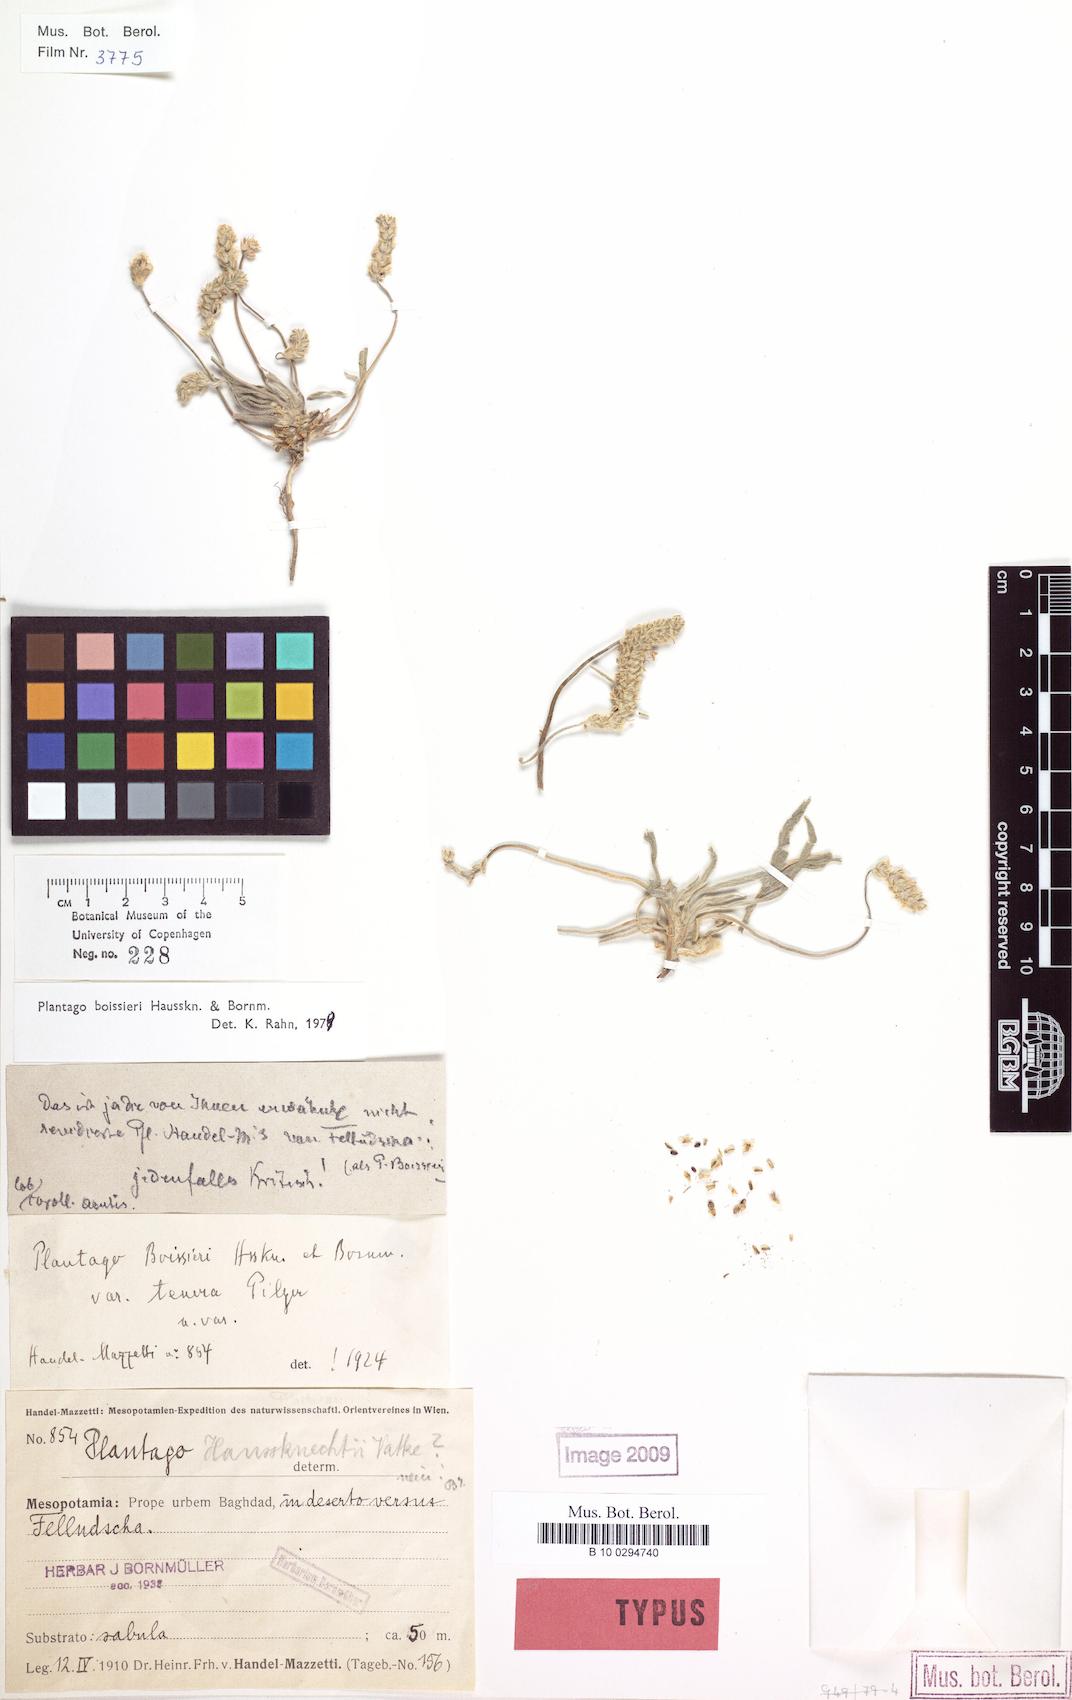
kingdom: Plantae
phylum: Tracheophyta
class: Magnoliopsida
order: Lamiales
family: Plantaginaceae
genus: Plantago
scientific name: Plantago boissieri
